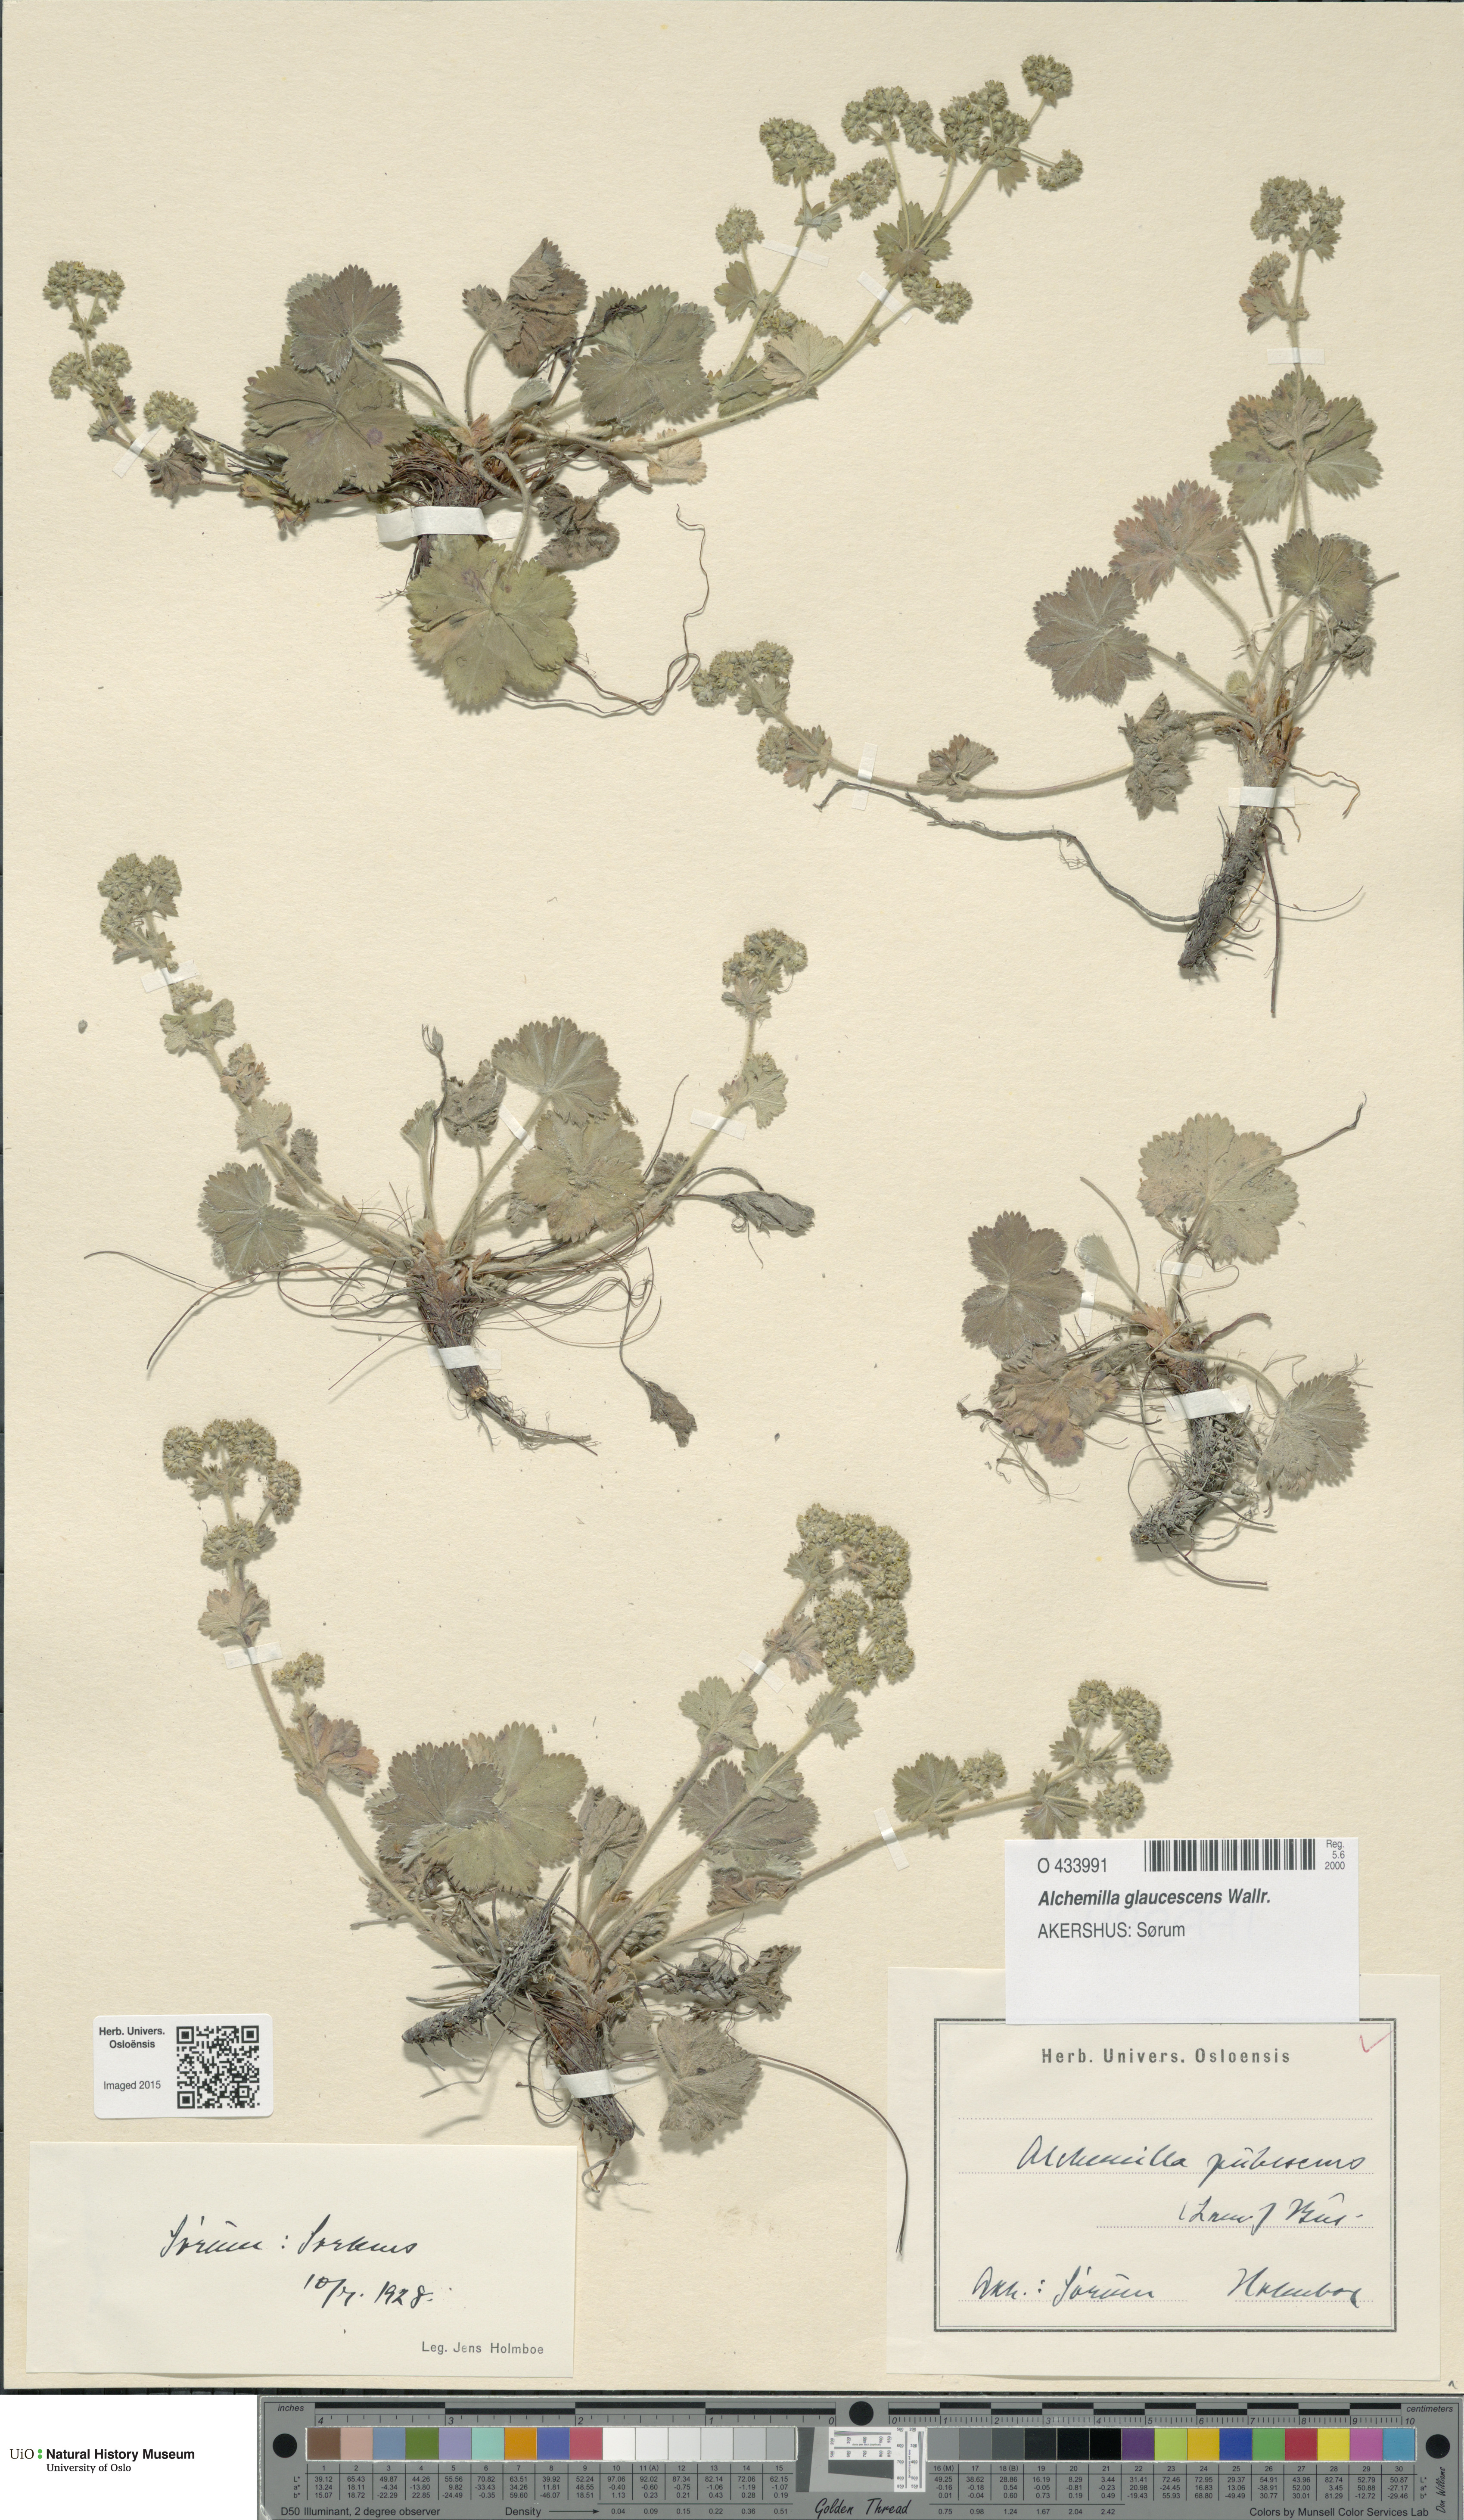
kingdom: Plantae
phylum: Tracheophyta
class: Magnoliopsida
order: Rosales
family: Rosaceae
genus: Alchemilla
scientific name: Alchemilla glaucescens
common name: Silky lady's mantle
